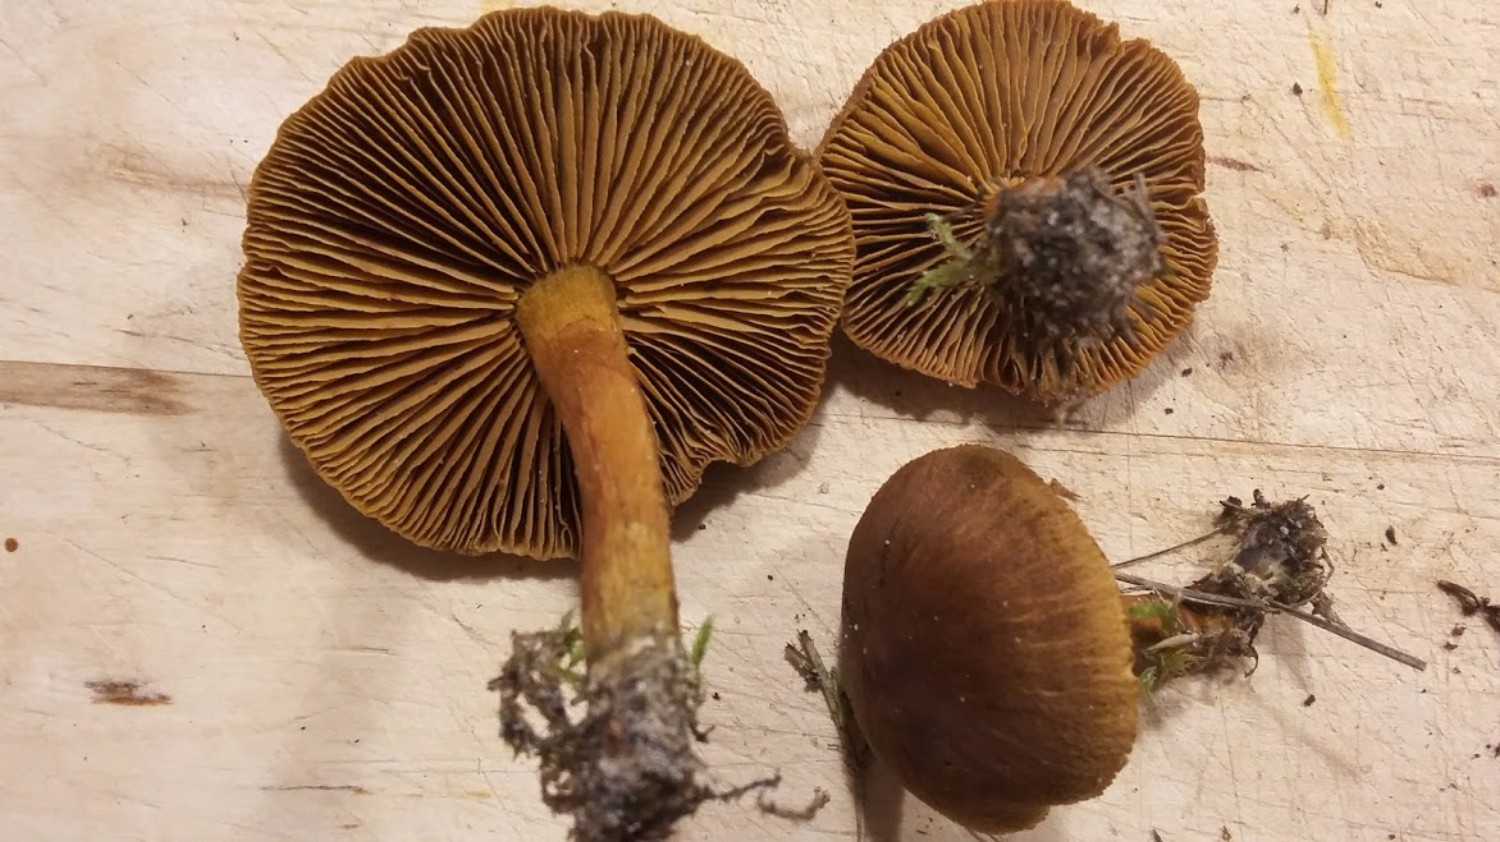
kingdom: Fungi
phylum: Basidiomycota
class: Agaricomycetes
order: Agaricales
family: Cortinariaceae
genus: Cortinarius
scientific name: Cortinarius
